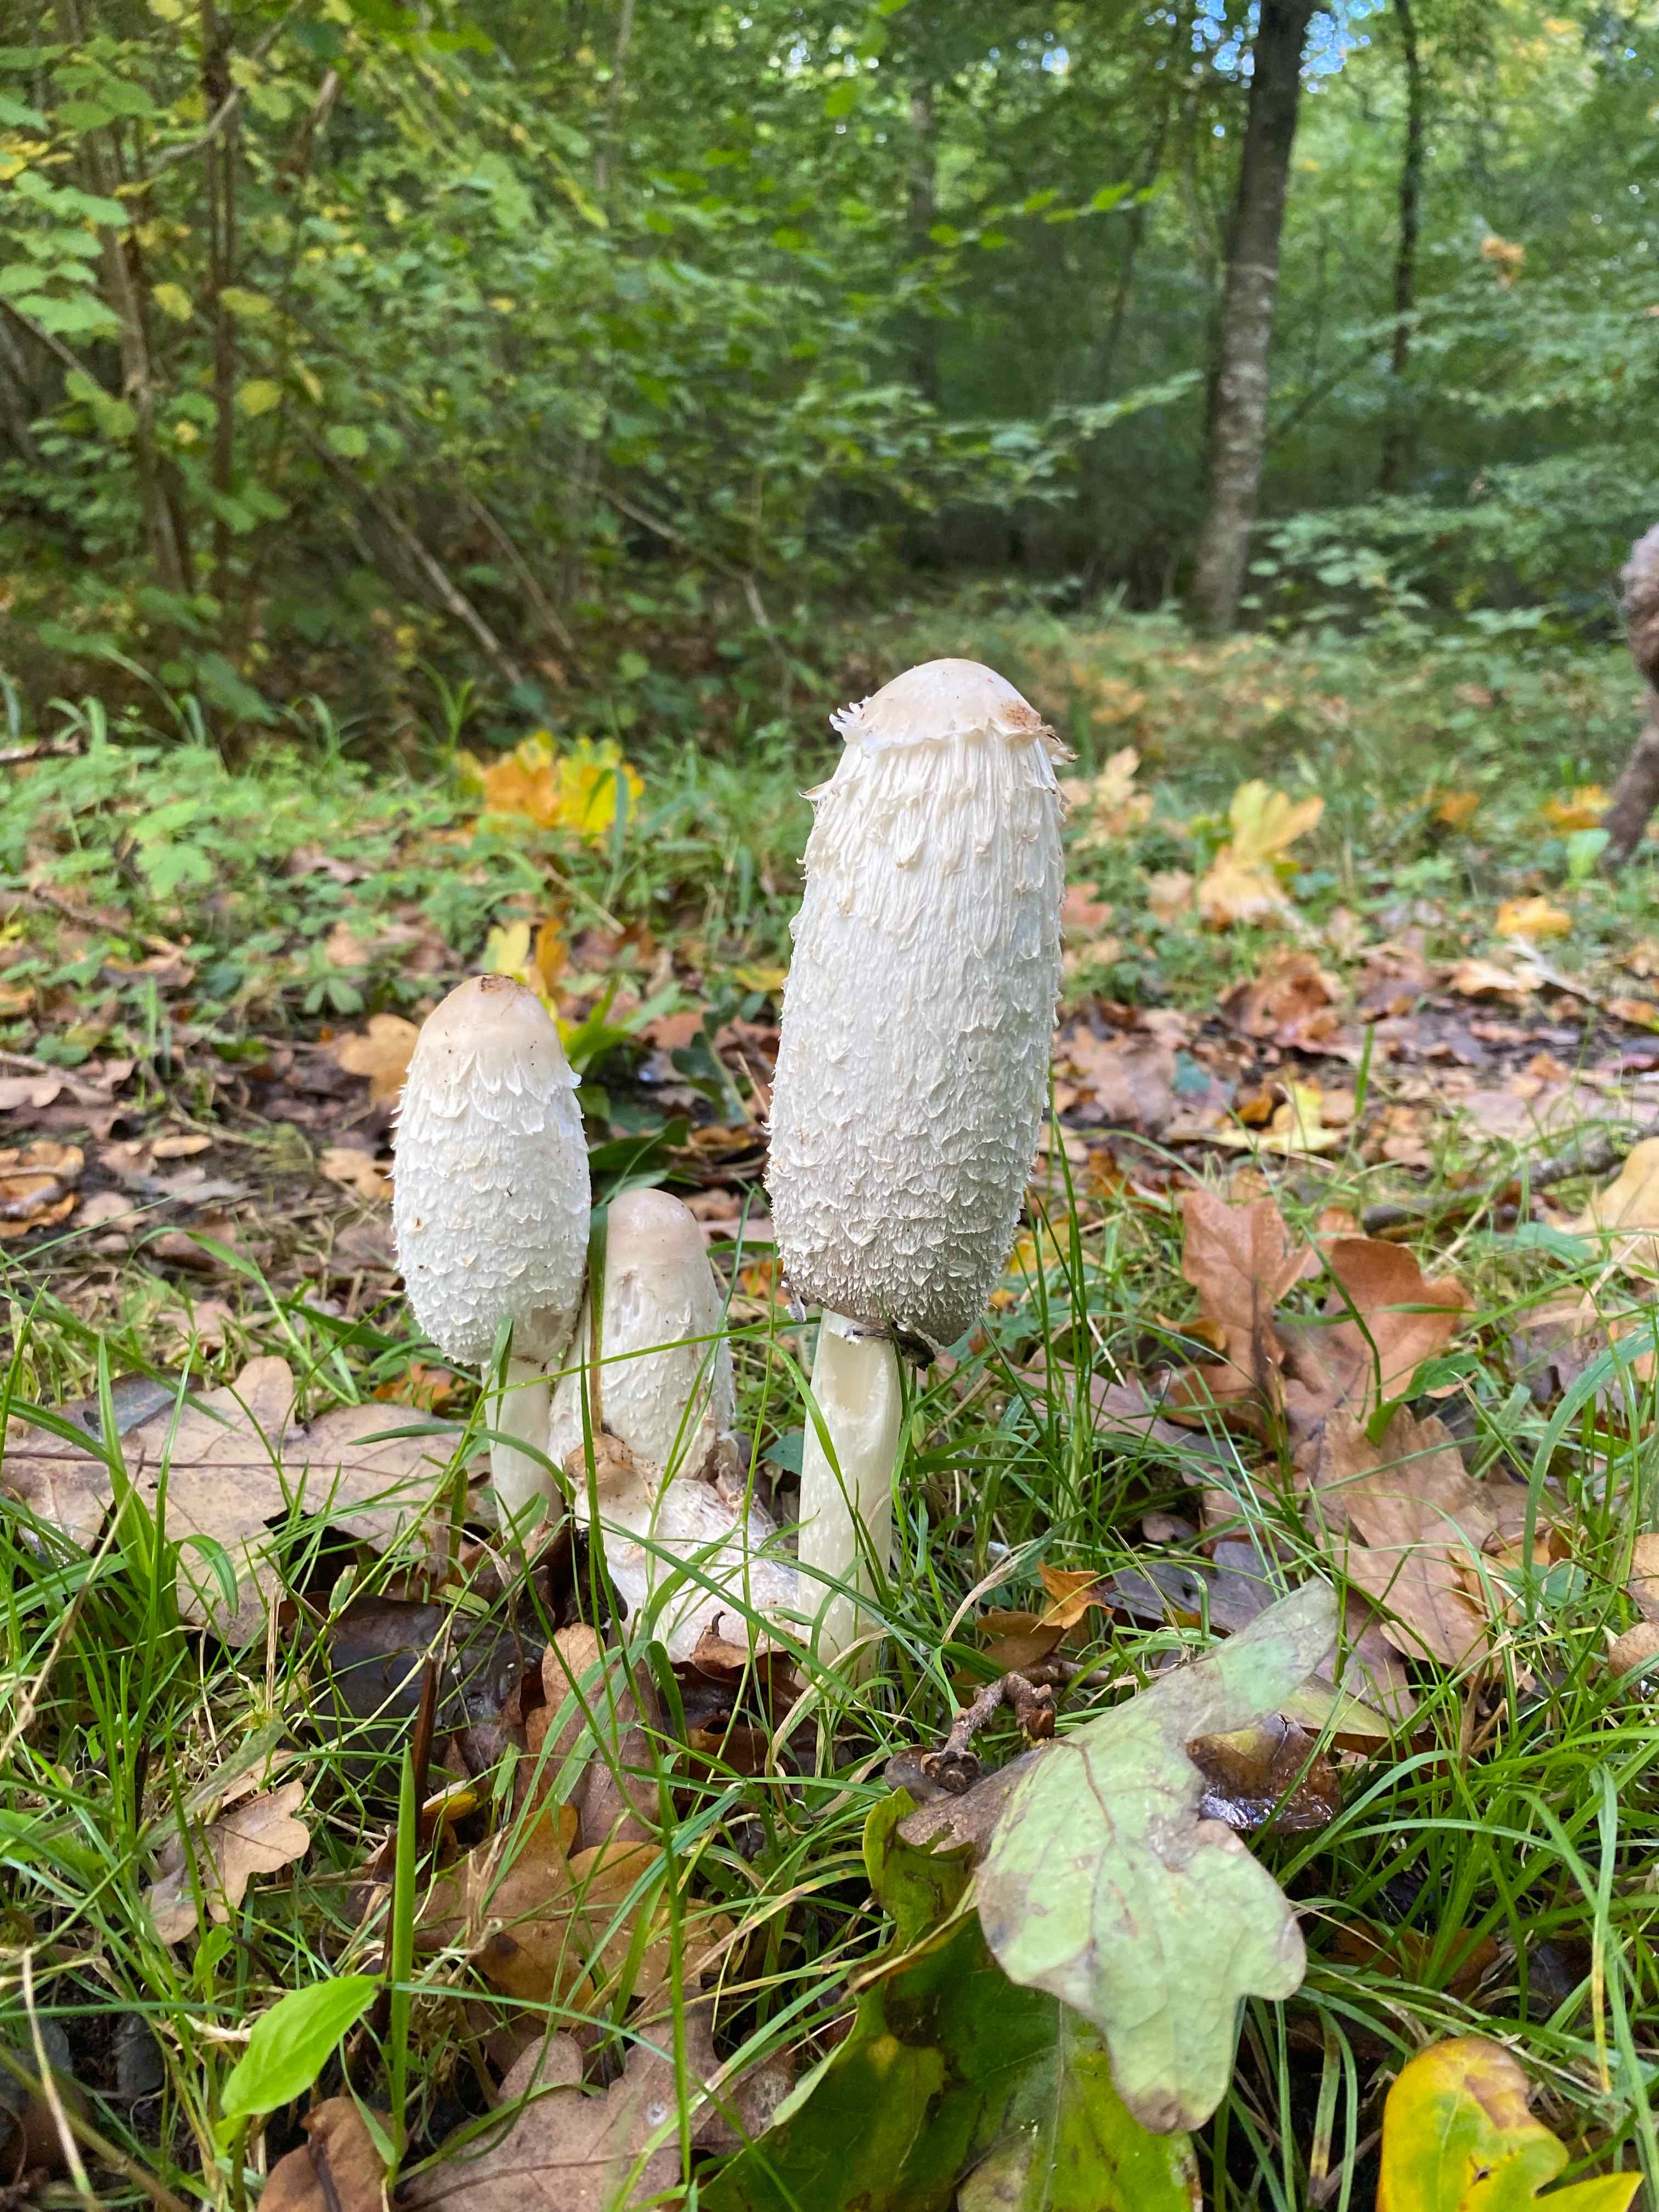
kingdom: Fungi
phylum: Basidiomycota
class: Agaricomycetes
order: Agaricales
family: Agaricaceae
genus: Coprinus
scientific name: Coprinus comatus
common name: stor parykhat
